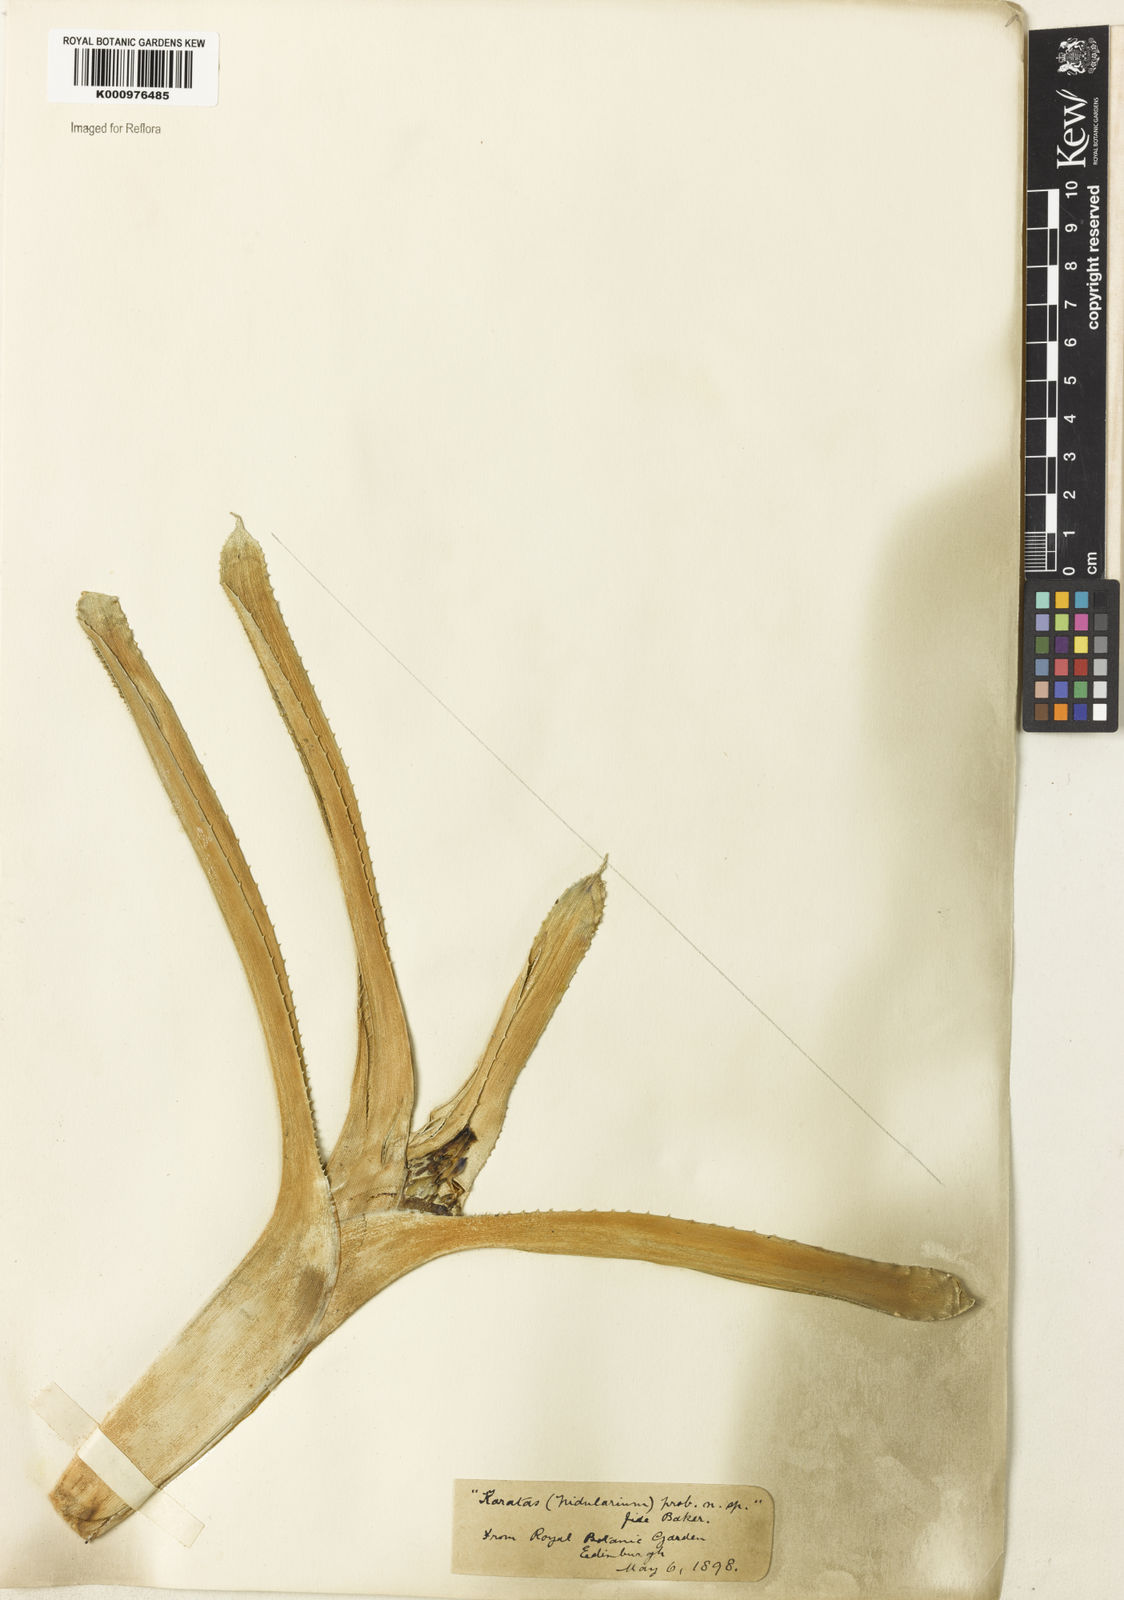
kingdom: Plantae
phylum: Tracheophyta
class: Liliopsida
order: Poales
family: Bromeliaceae
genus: Nidularium
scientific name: Nidularium
